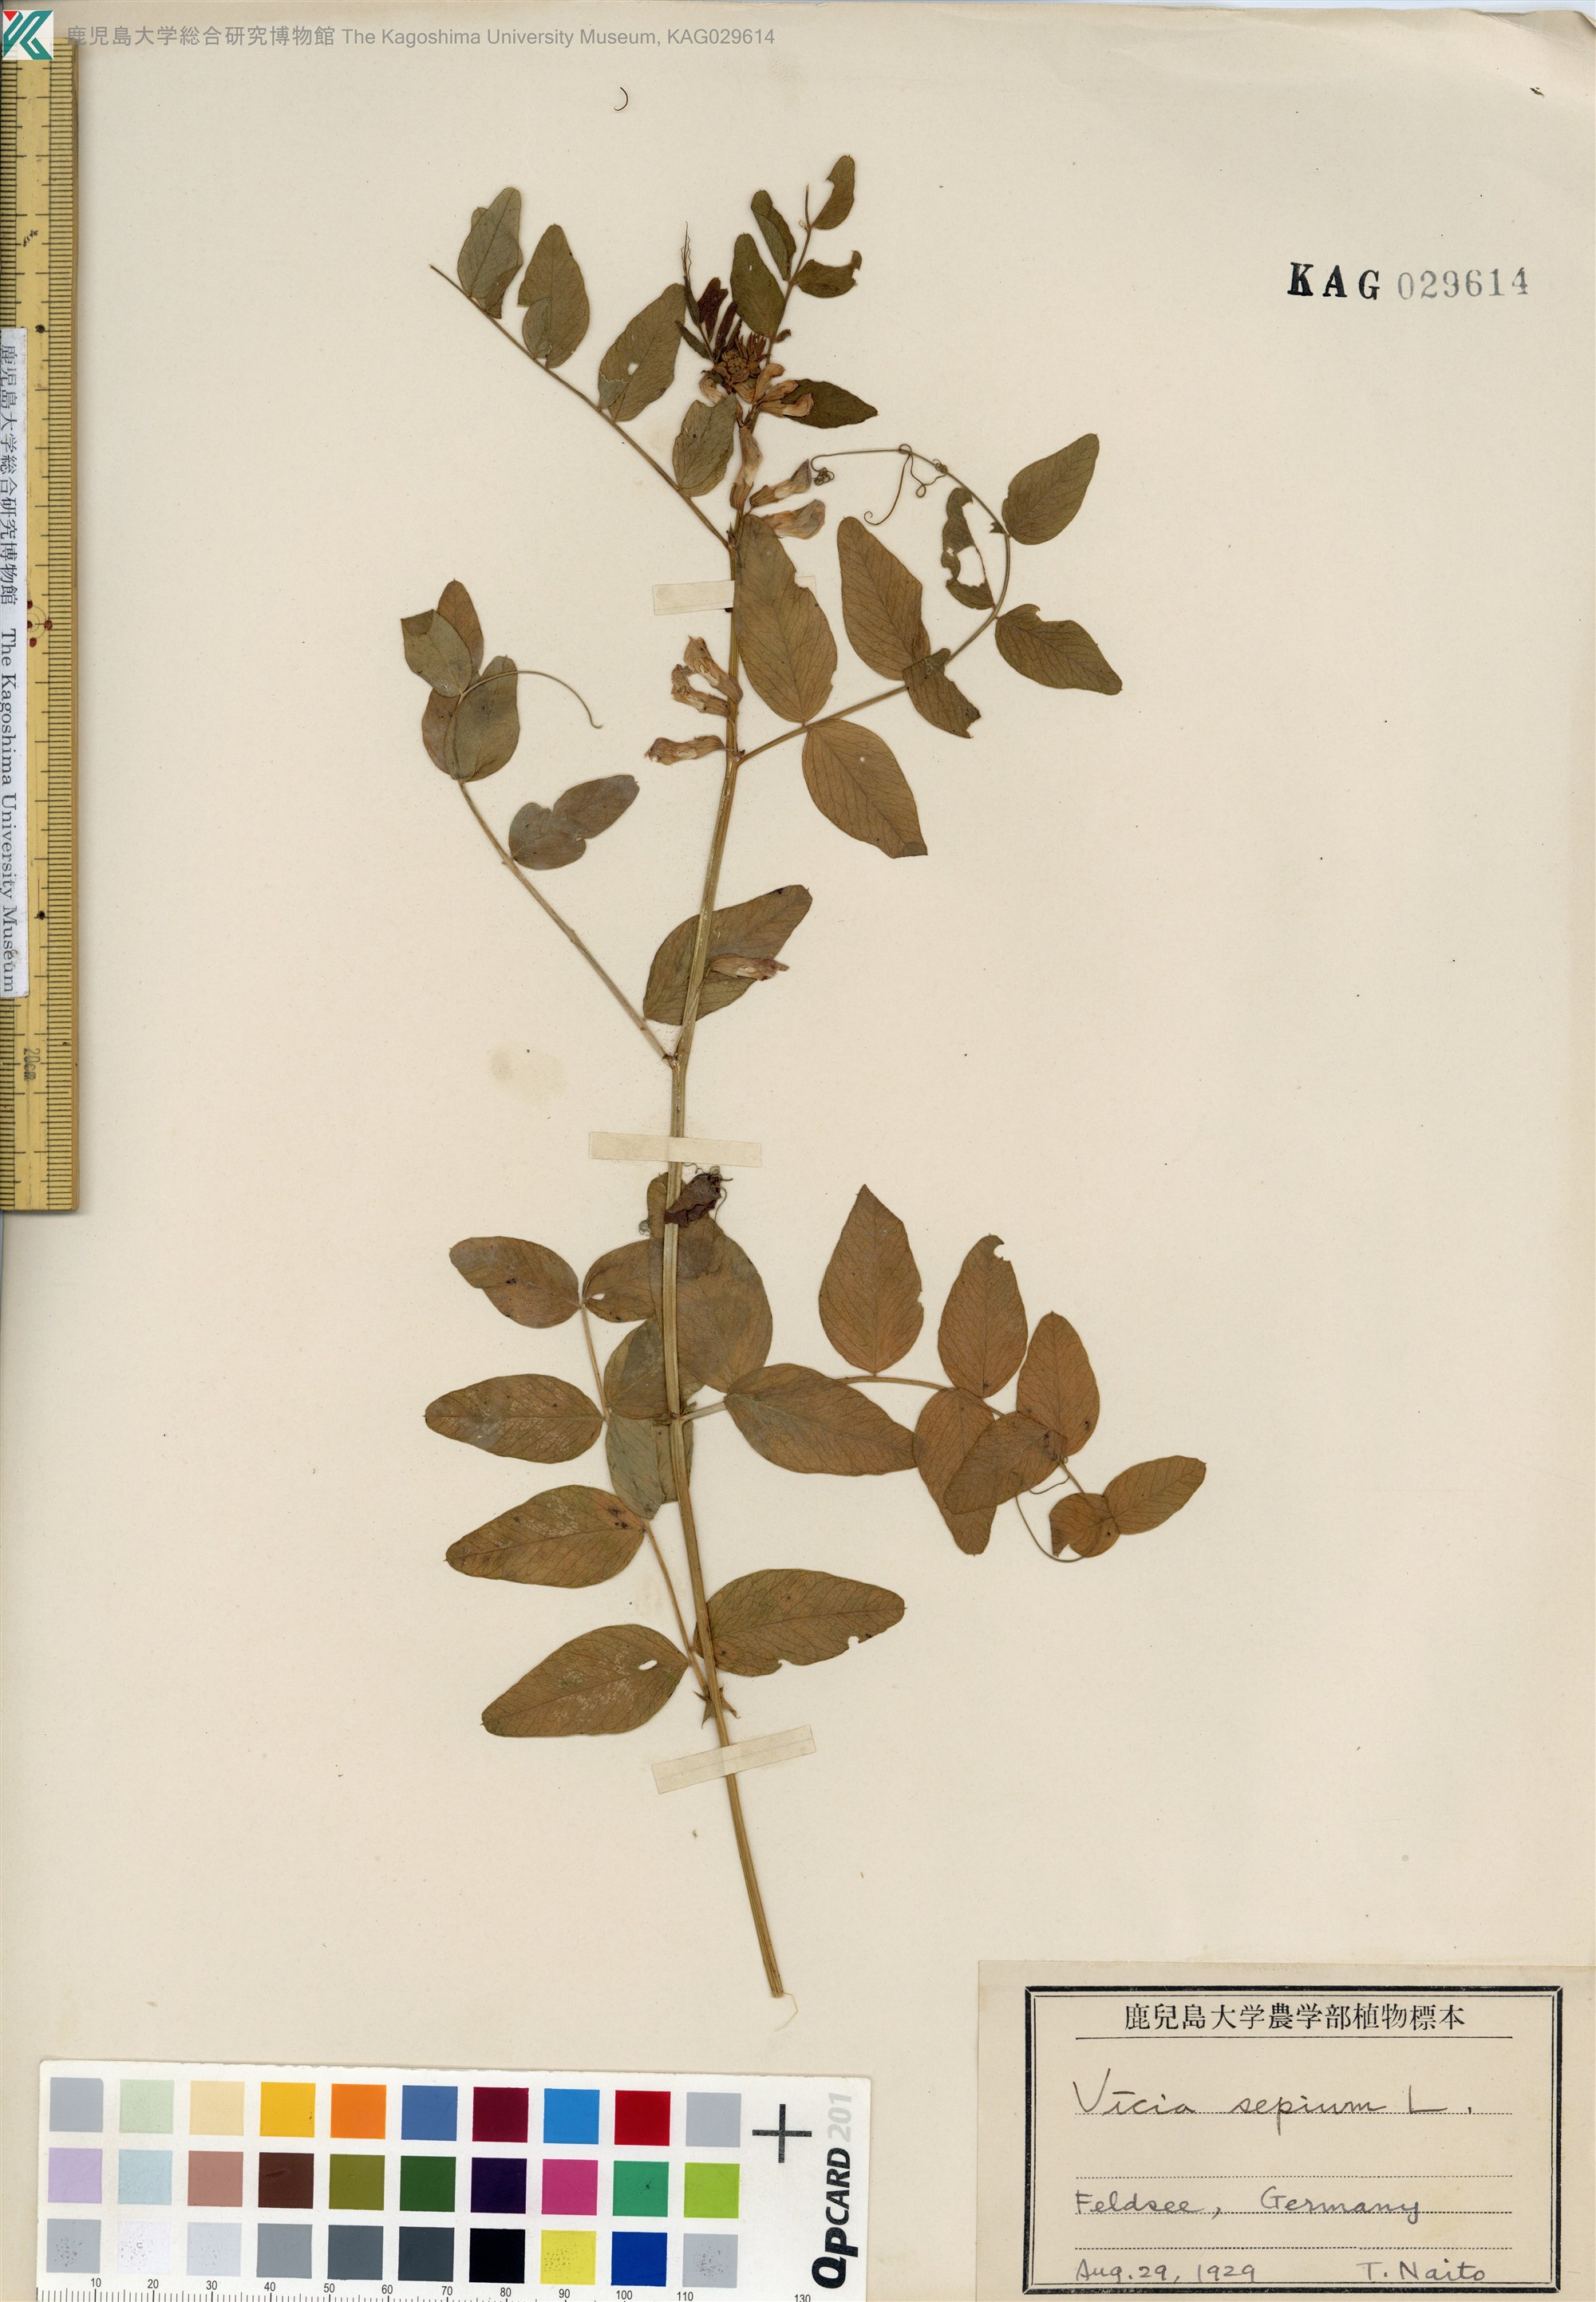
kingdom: Plantae
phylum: Tracheophyta
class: Magnoliopsida
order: Fabales
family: Fabaceae
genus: Vicia
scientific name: Vicia sepium
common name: Bush vetch
